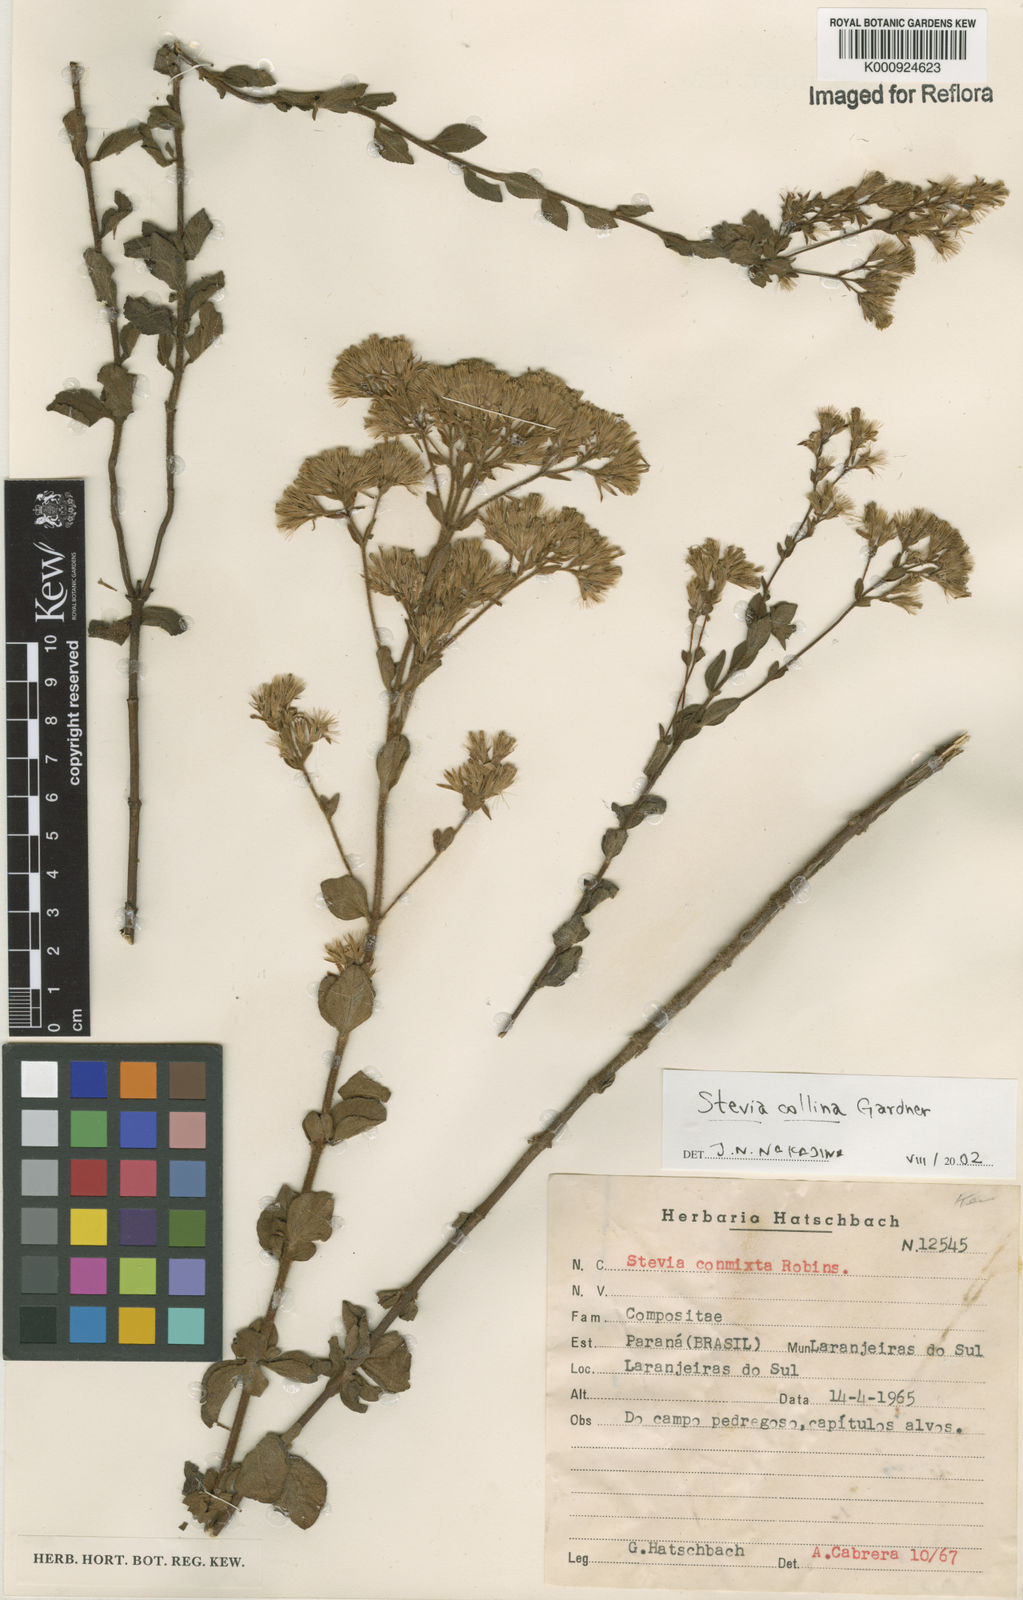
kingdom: Plantae
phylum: Tracheophyta
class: Magnoliopsida
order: Asterales
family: Asteraceae
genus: Stevia
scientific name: Stevia collina
